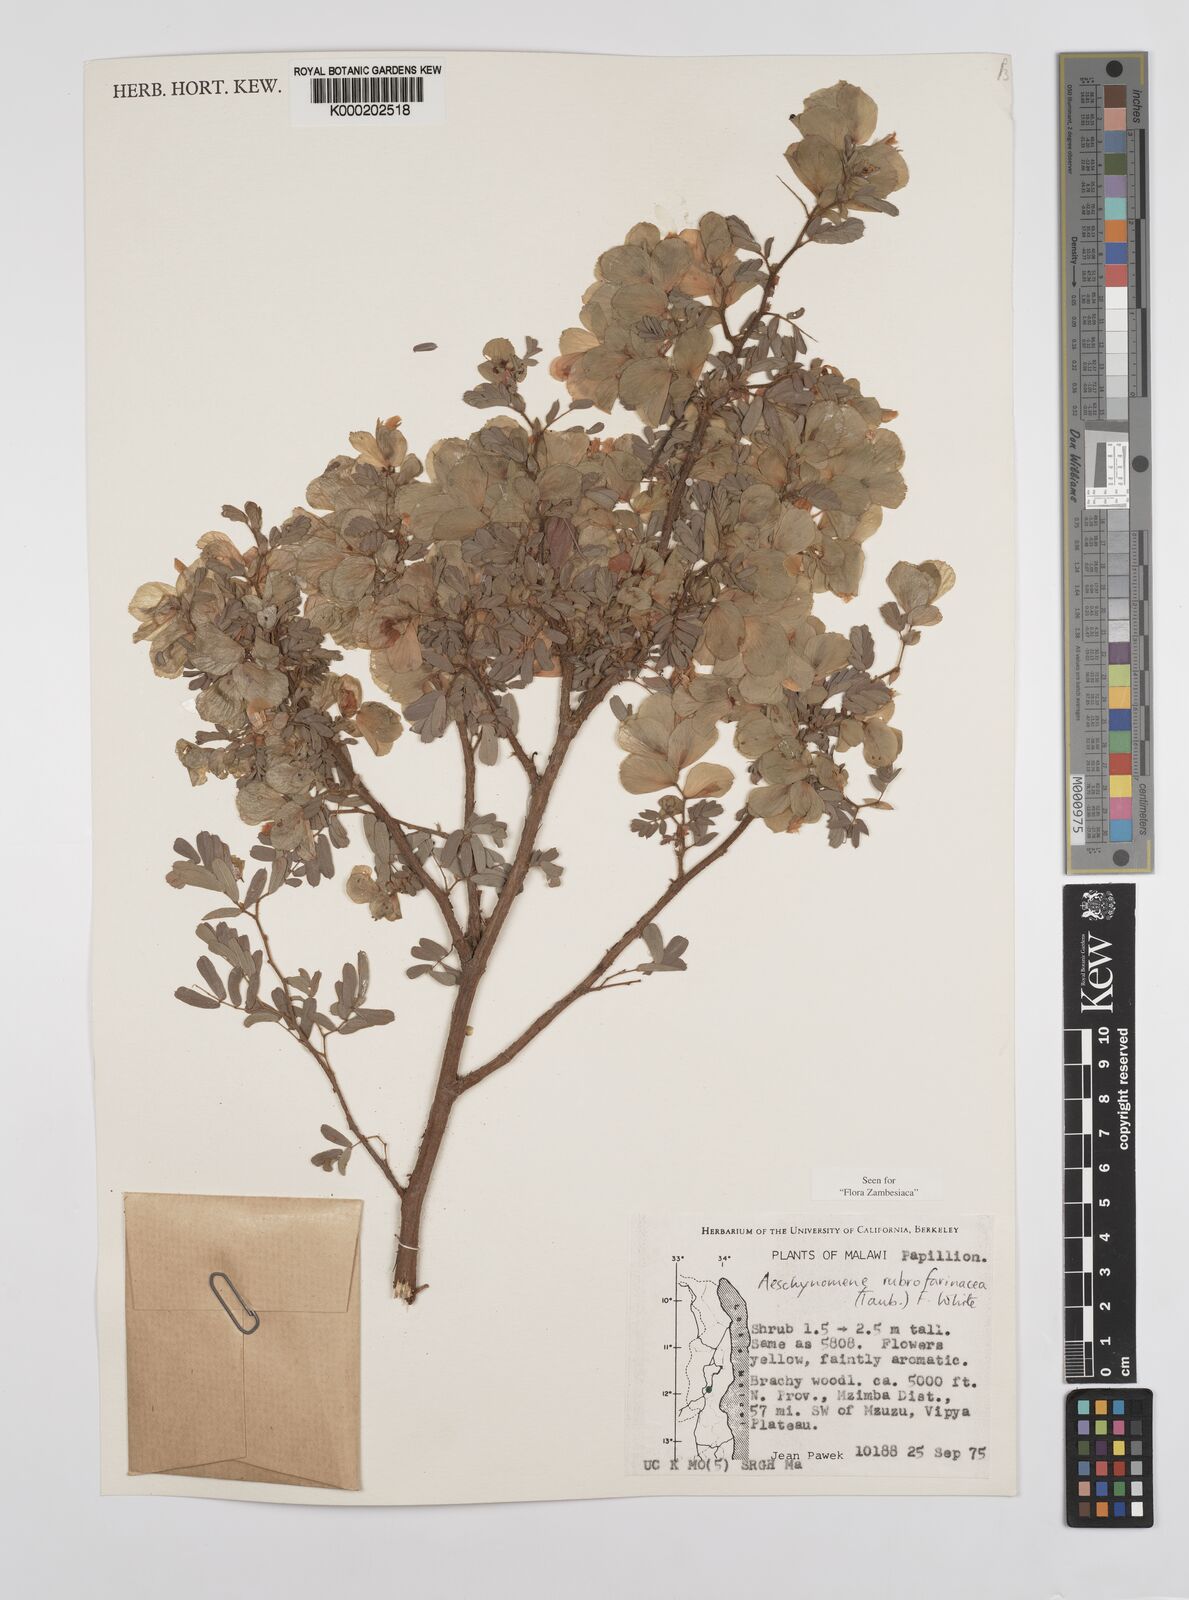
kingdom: Plantae
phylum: Tracheophyta
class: Magnoliopsida
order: Fabales
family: Fabaceae
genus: Aeschynomene
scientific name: Aeschynomene rubrofarinacea
